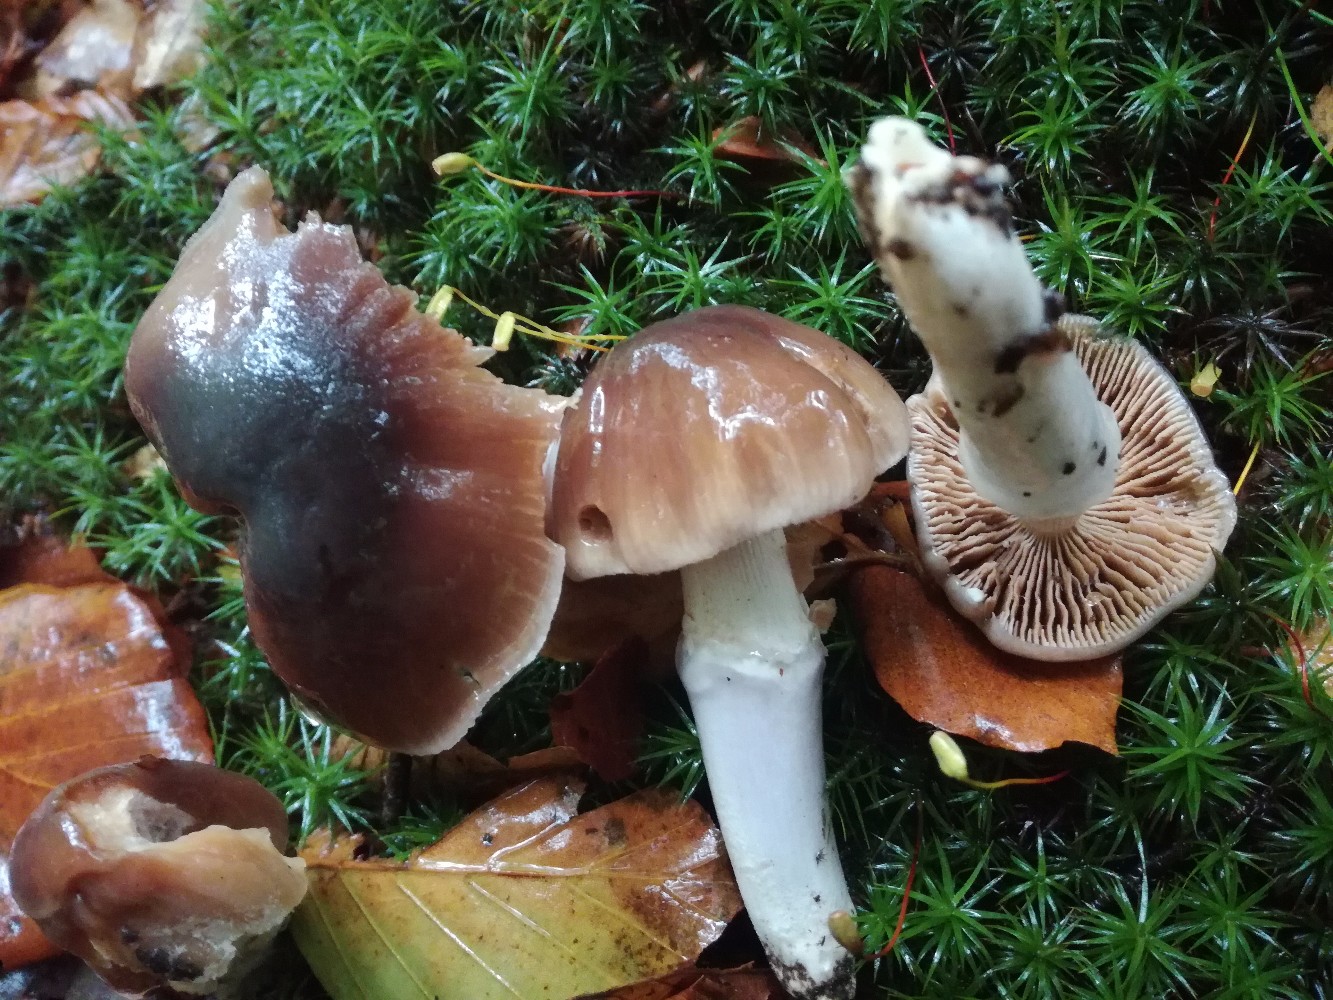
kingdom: Fungi
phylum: Basidiomycota
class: Agaricomycetes
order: Agaricales
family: Cortinariaceae
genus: Cortinarius
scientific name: Cortinarius elatior
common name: høj slørhat
